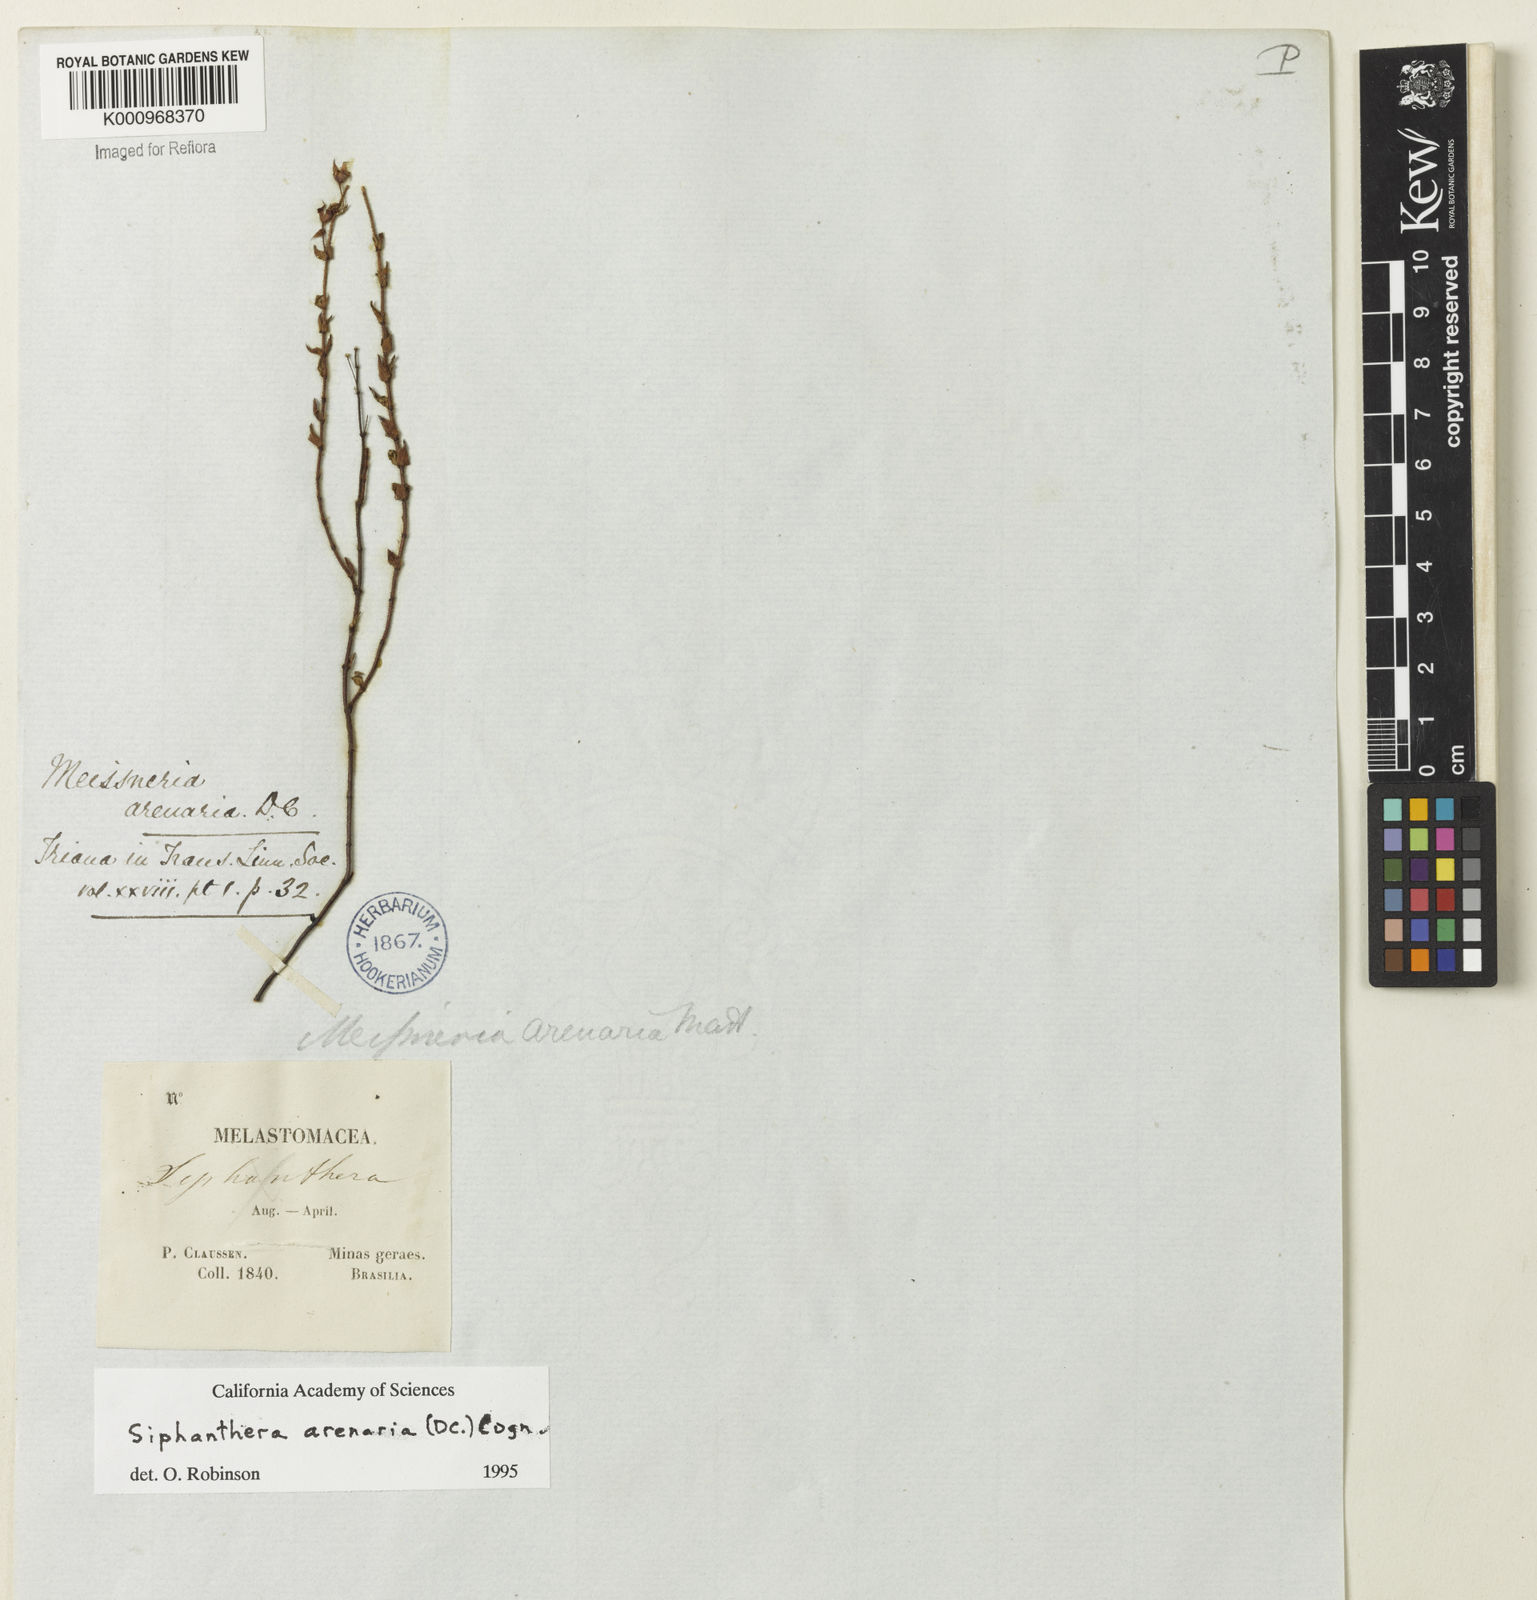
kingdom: Plantae
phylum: Tracheophyta
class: Magnoliopsida
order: Myrtales
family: Melastomataceae
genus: Siphanthera
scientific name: Siphanthera arenaria
